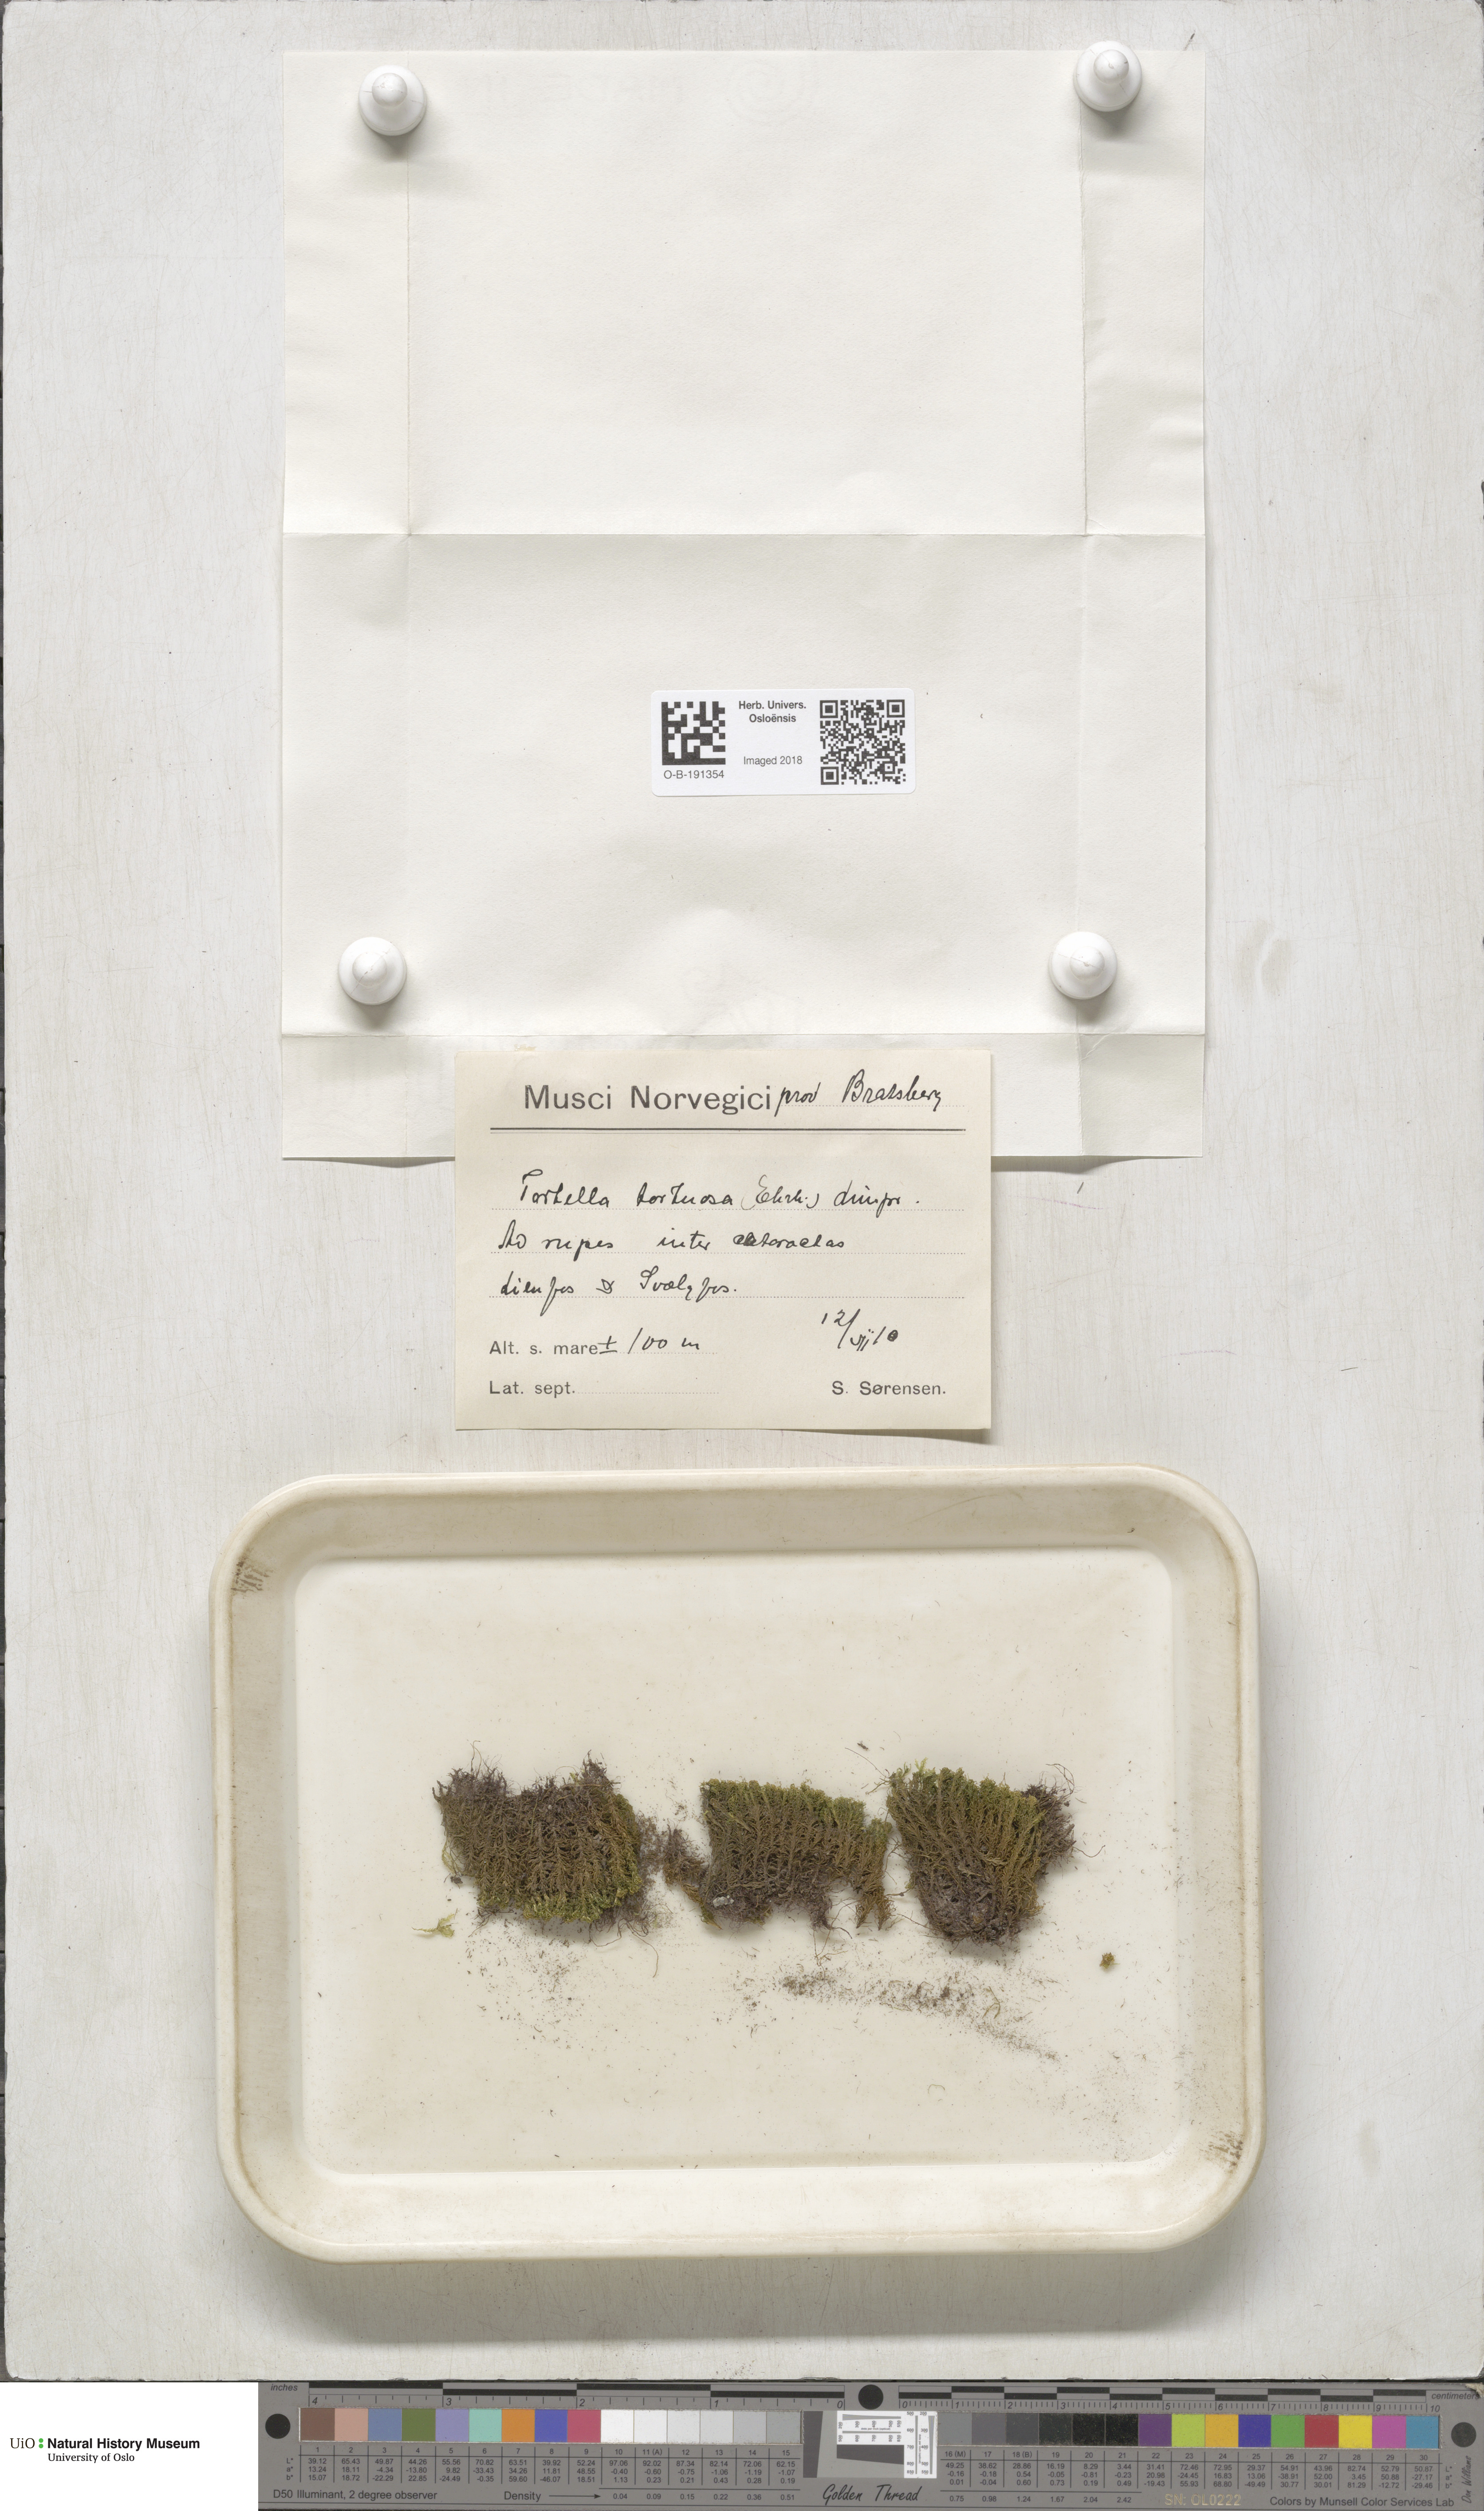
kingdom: Plantae
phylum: Bryophyta
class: Bryopsida
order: Pottiales
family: Pottiaceae
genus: Tortella
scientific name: Tortella tortuosa
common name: Frizzled crisp moss
